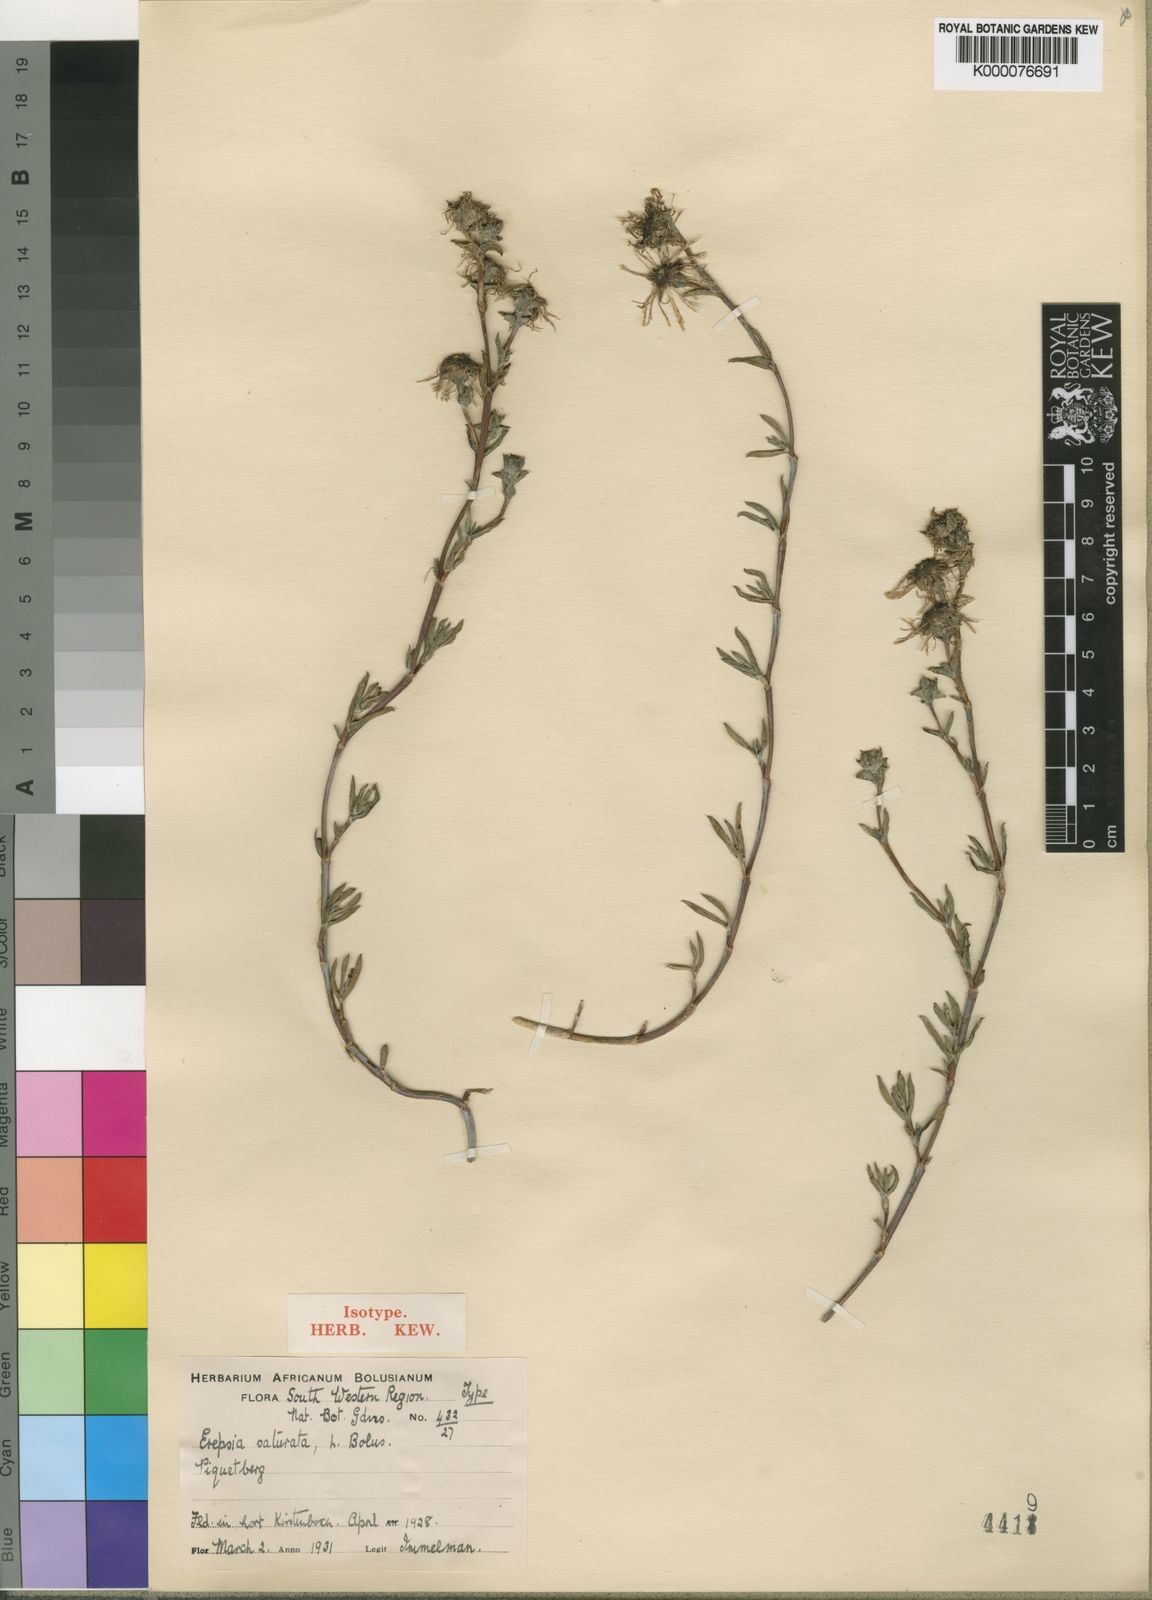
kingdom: Plantae
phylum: Tracheophyta
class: Magnoliopsida
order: Caryophyllales
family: Aizoaceae
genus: Erepsia
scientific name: Erepsia saturata
